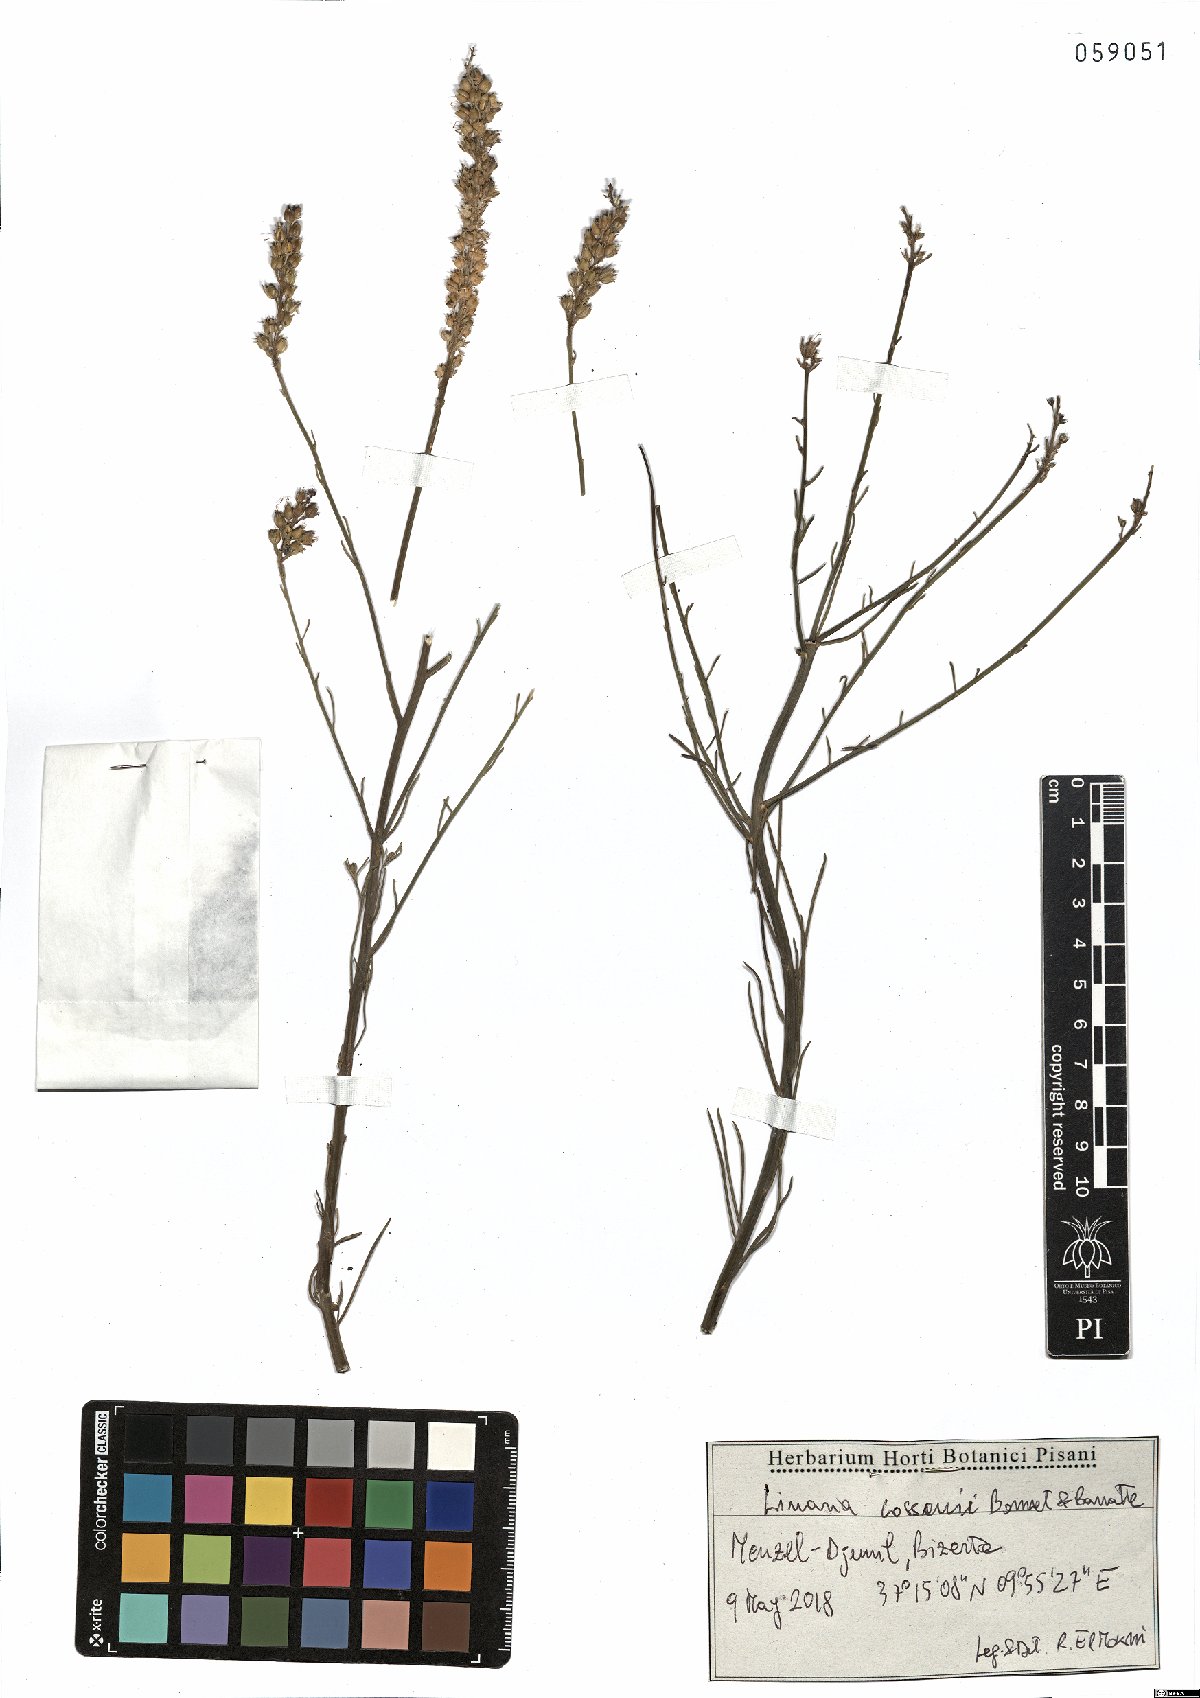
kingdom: Plantae
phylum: Tracheophyta
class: Magnoliopsida
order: Lamiales
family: Plantaginaceae
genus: Linaria
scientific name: Linaria cossonii
